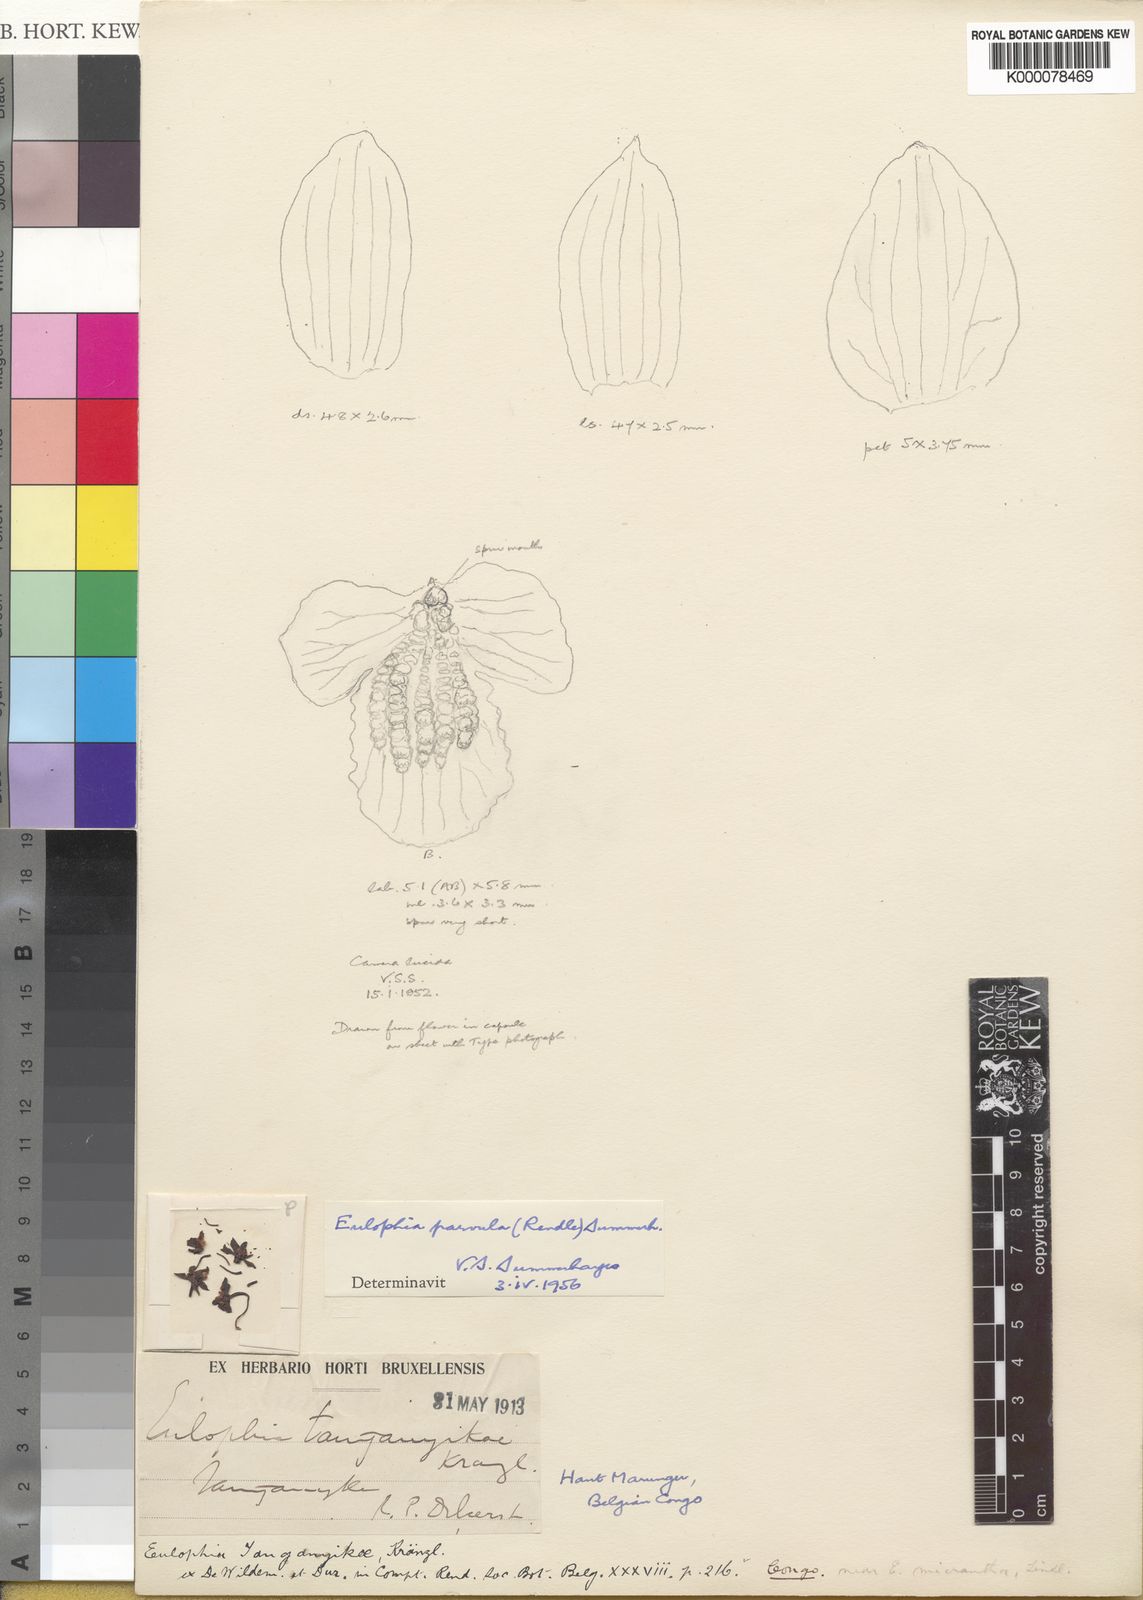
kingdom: Plantae
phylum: Tracheophyta
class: Liliopsida
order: Asparagales
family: Orchidaceae
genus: Eulophia
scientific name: Eulophia parvula
